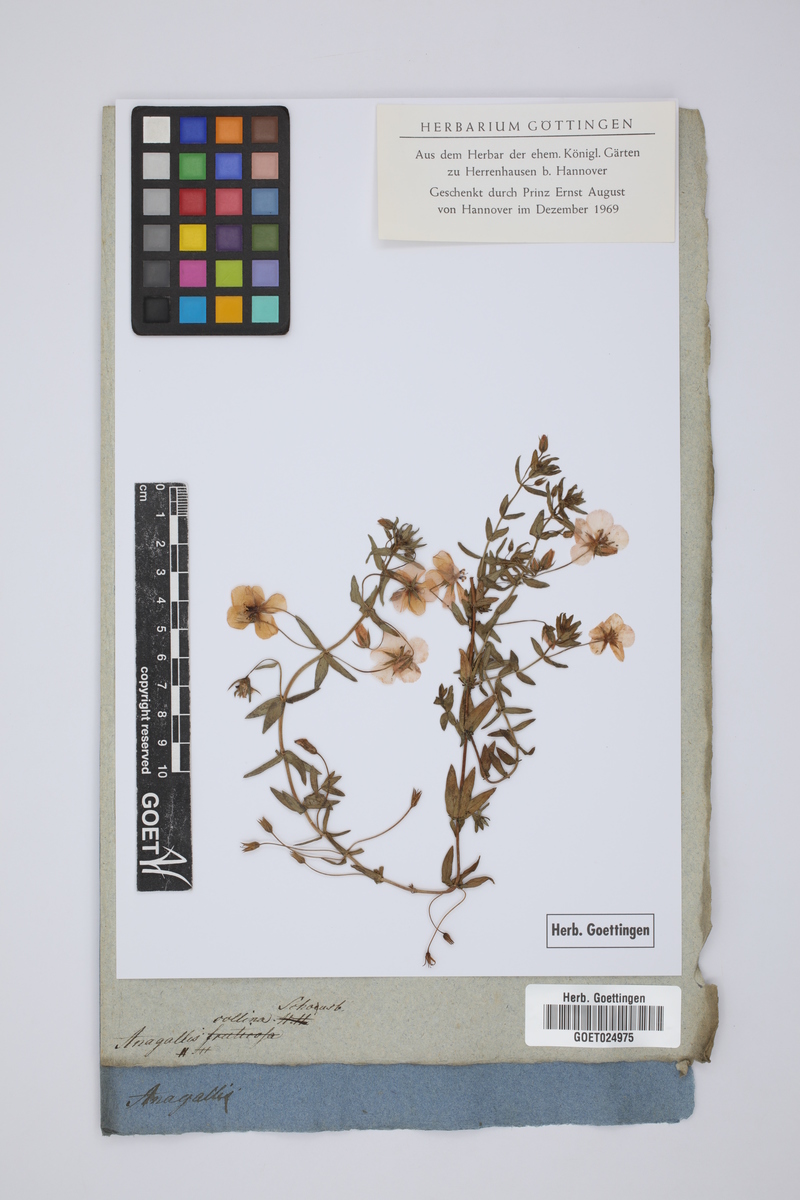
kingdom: Plantae
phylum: Tracheophyta
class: Magnoliopsida
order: Ericales
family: Primulaceae
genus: Lysimachia
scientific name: Lysimachia monelli
